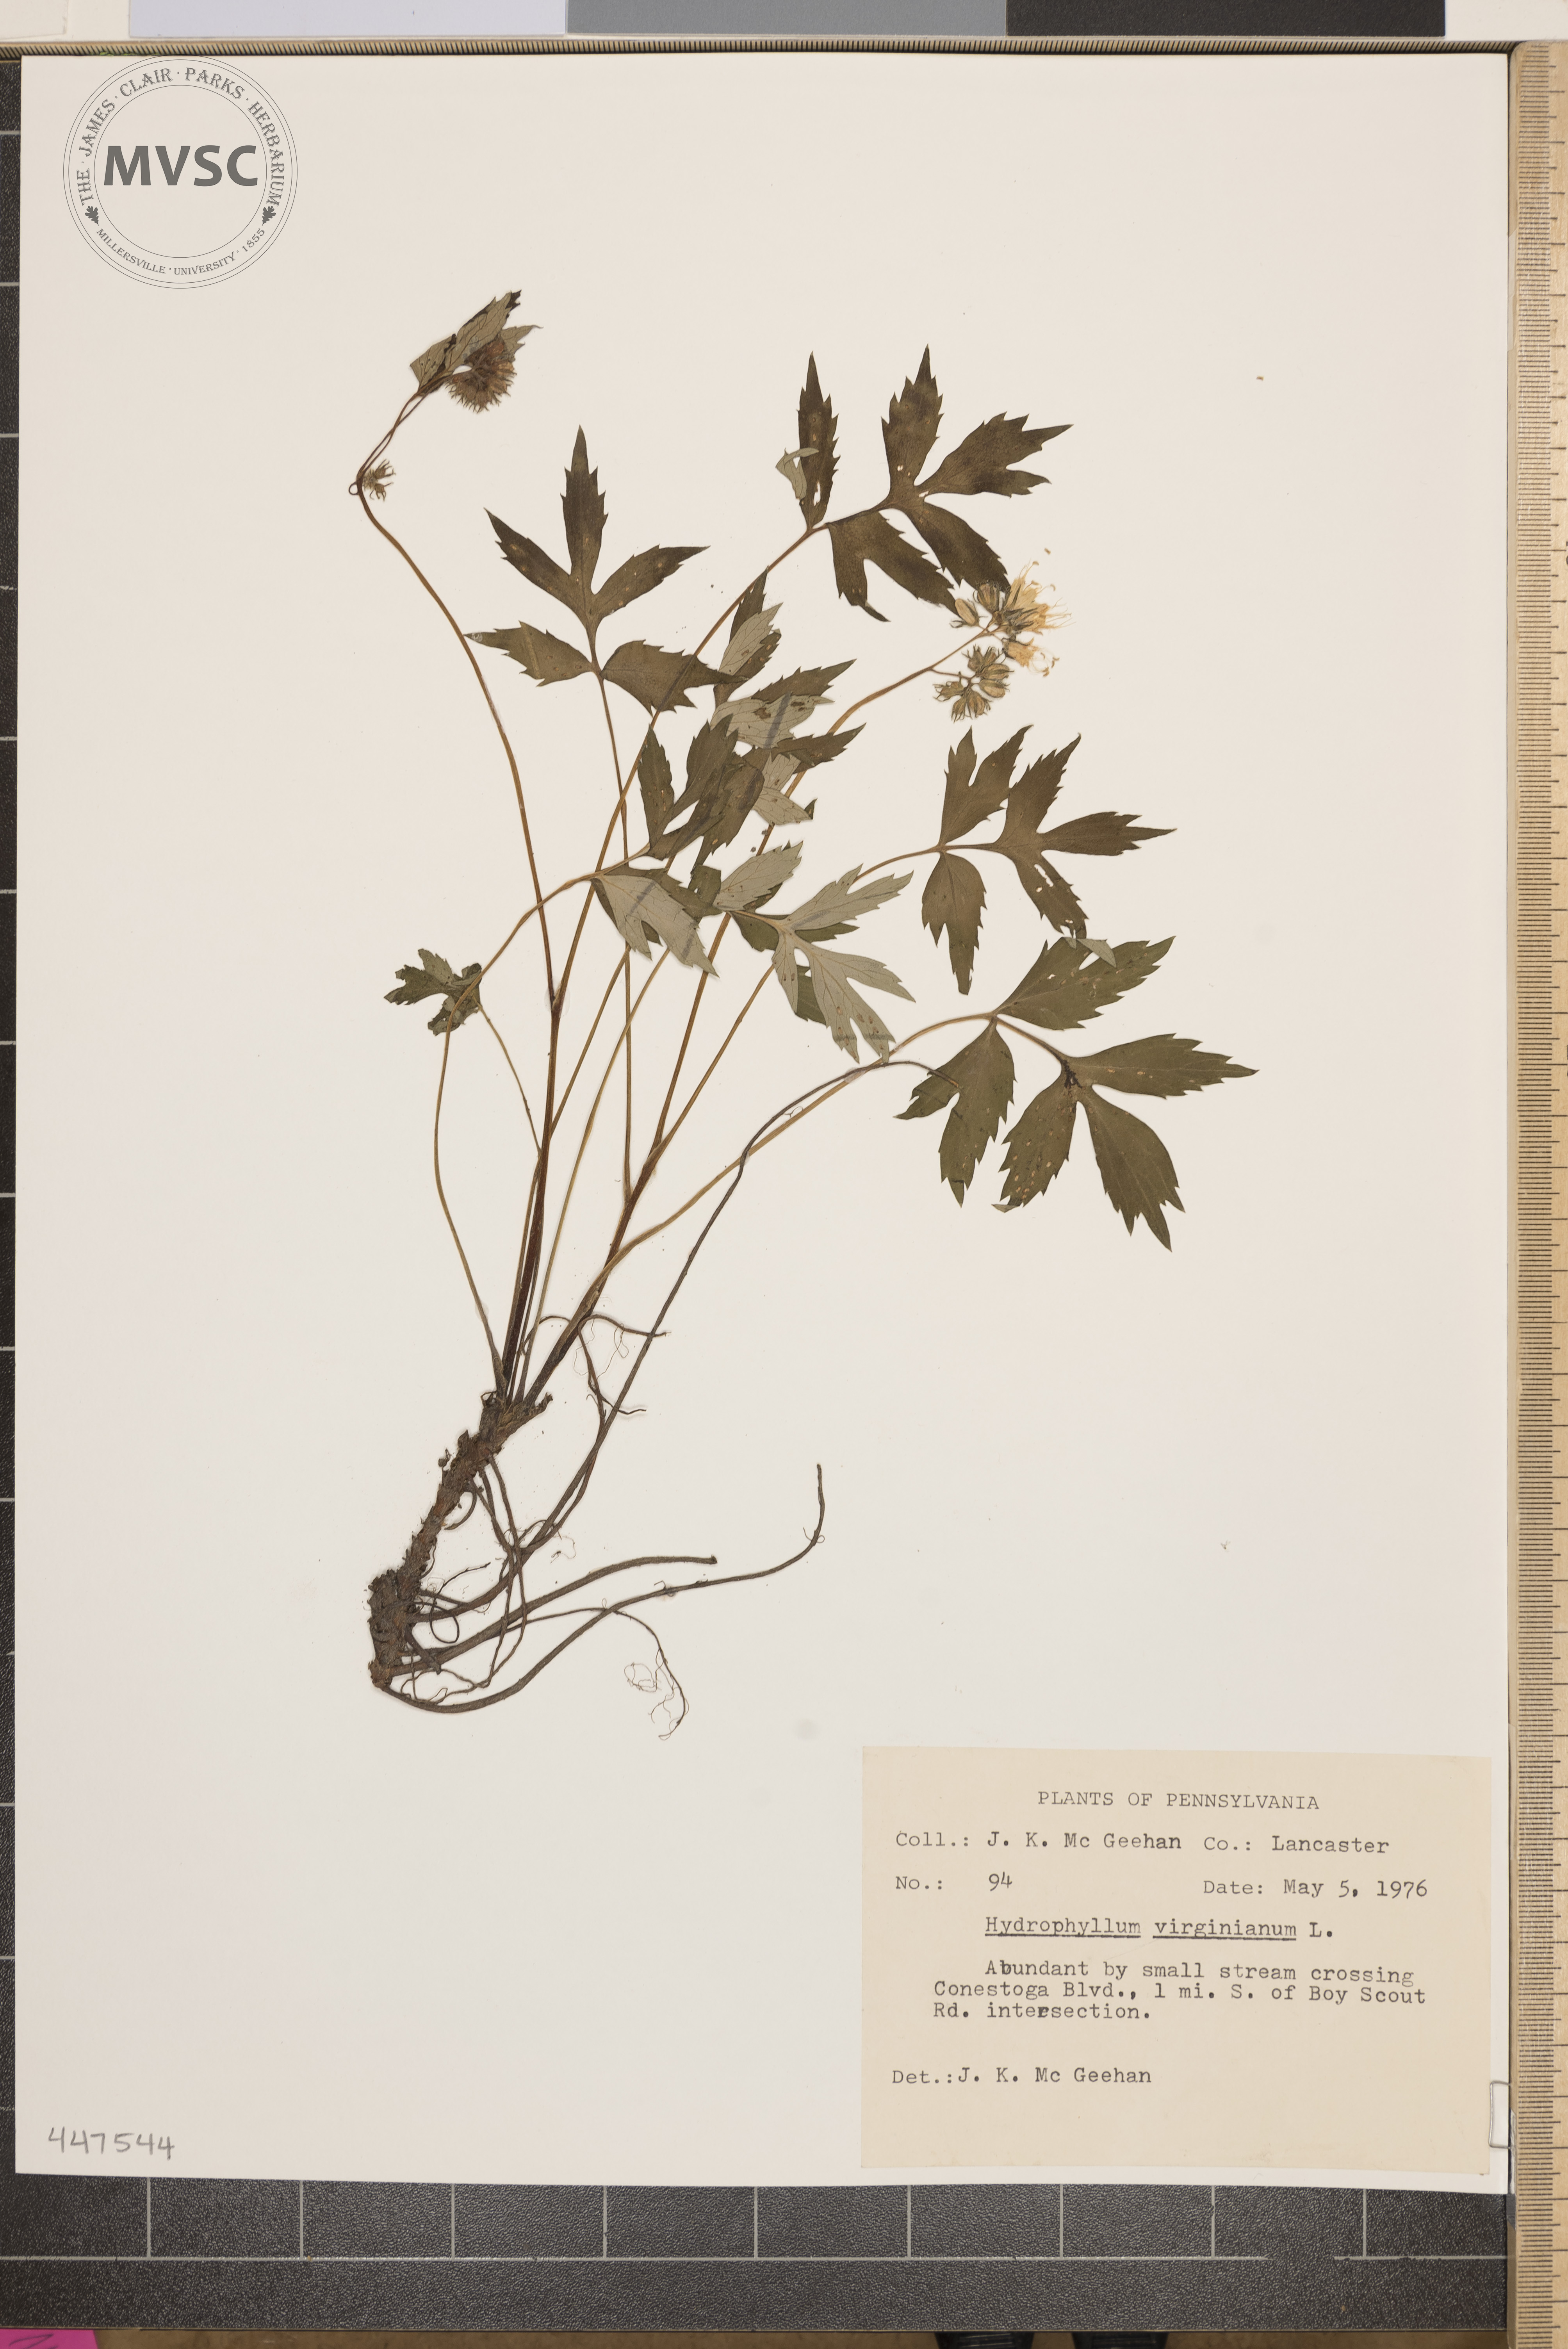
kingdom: Plantae
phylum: Tracheophyta
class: Magnoliopsida
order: Boraginales
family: Hydrophyllaceae
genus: Hydrophyllum
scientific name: Hydrophyllum virginianum
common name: Virginia waterleaf
